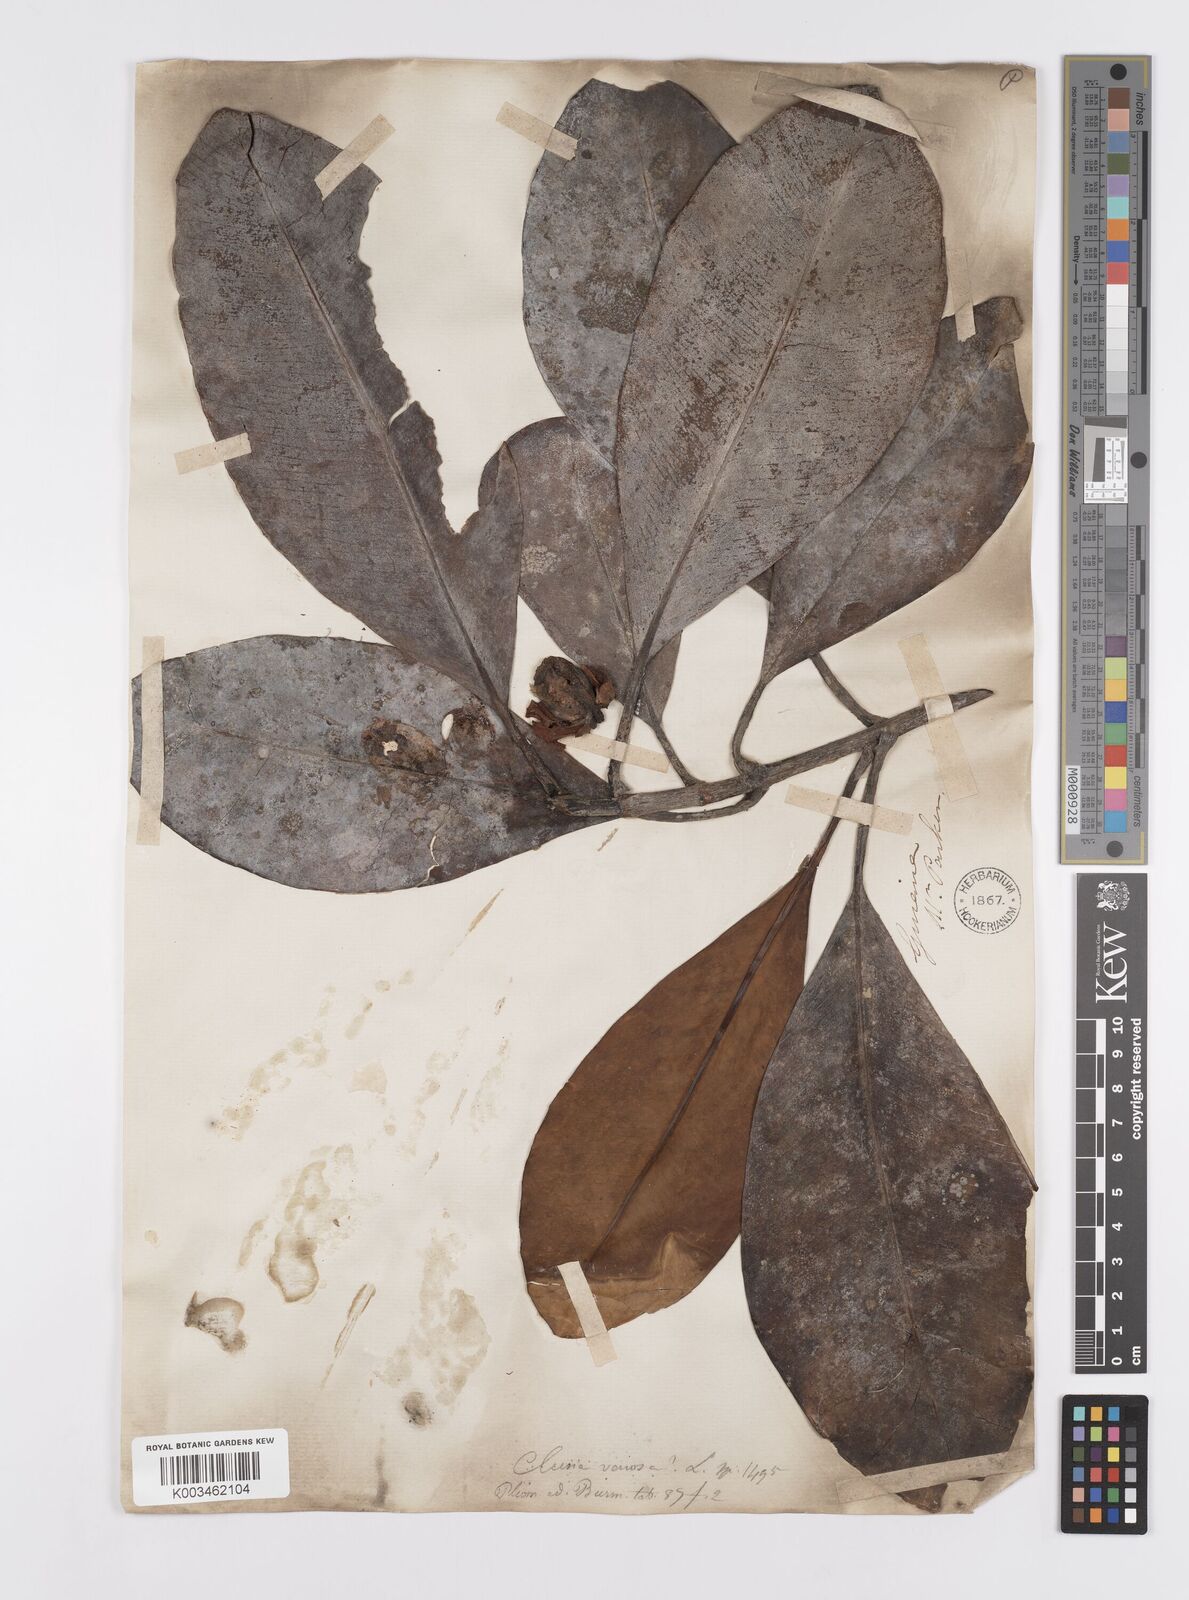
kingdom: Plantae
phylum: Tracheophyta
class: Magnoliopsida
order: Malpighiales
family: Clusiaceae
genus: Clusia
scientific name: Clusia minor
